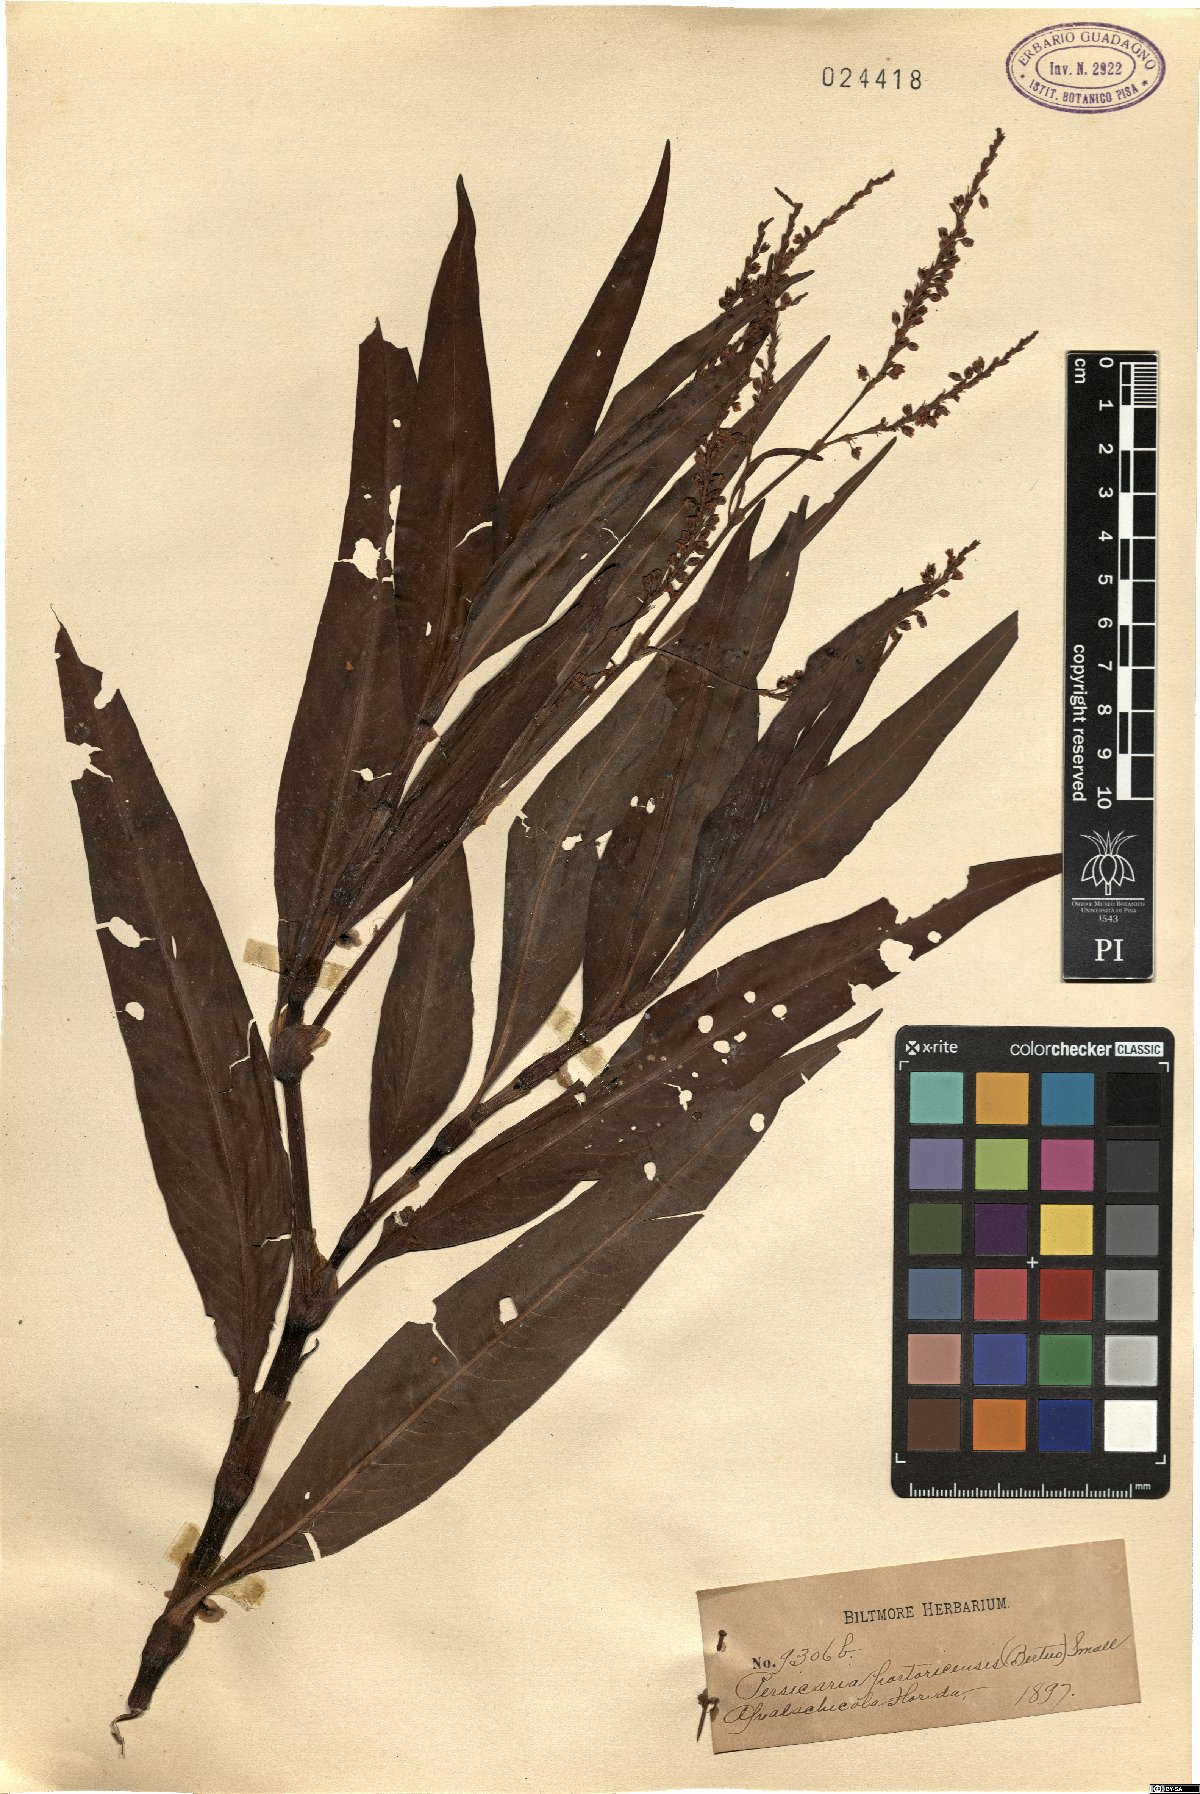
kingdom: Plantae
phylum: Tracheophyta
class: Magnoliopsida
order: Caryophyllales
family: Polygonaceae
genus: Persicaria
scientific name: Persicaria glabra
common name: Denseflower knotweed
